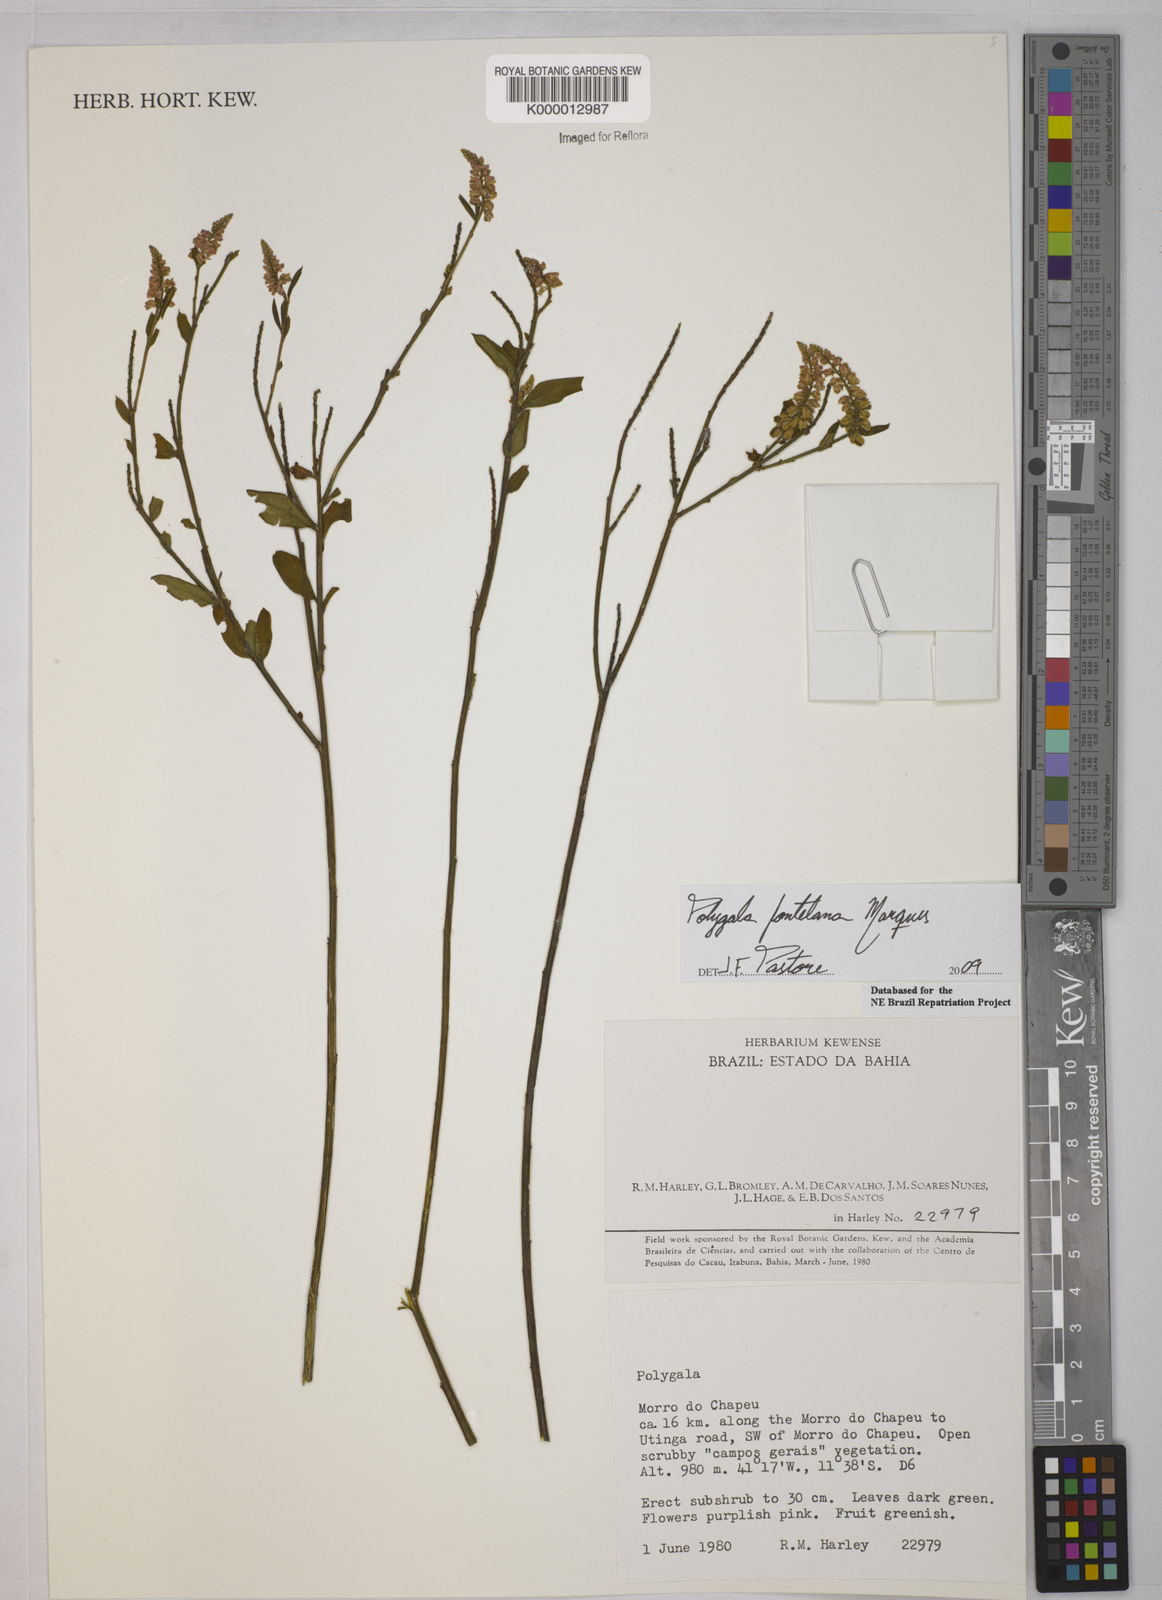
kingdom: Plantae
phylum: Tracheophyta
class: Magnoliopsida
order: Fabales
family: Polygalaceae
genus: Polygala
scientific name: Polygala
